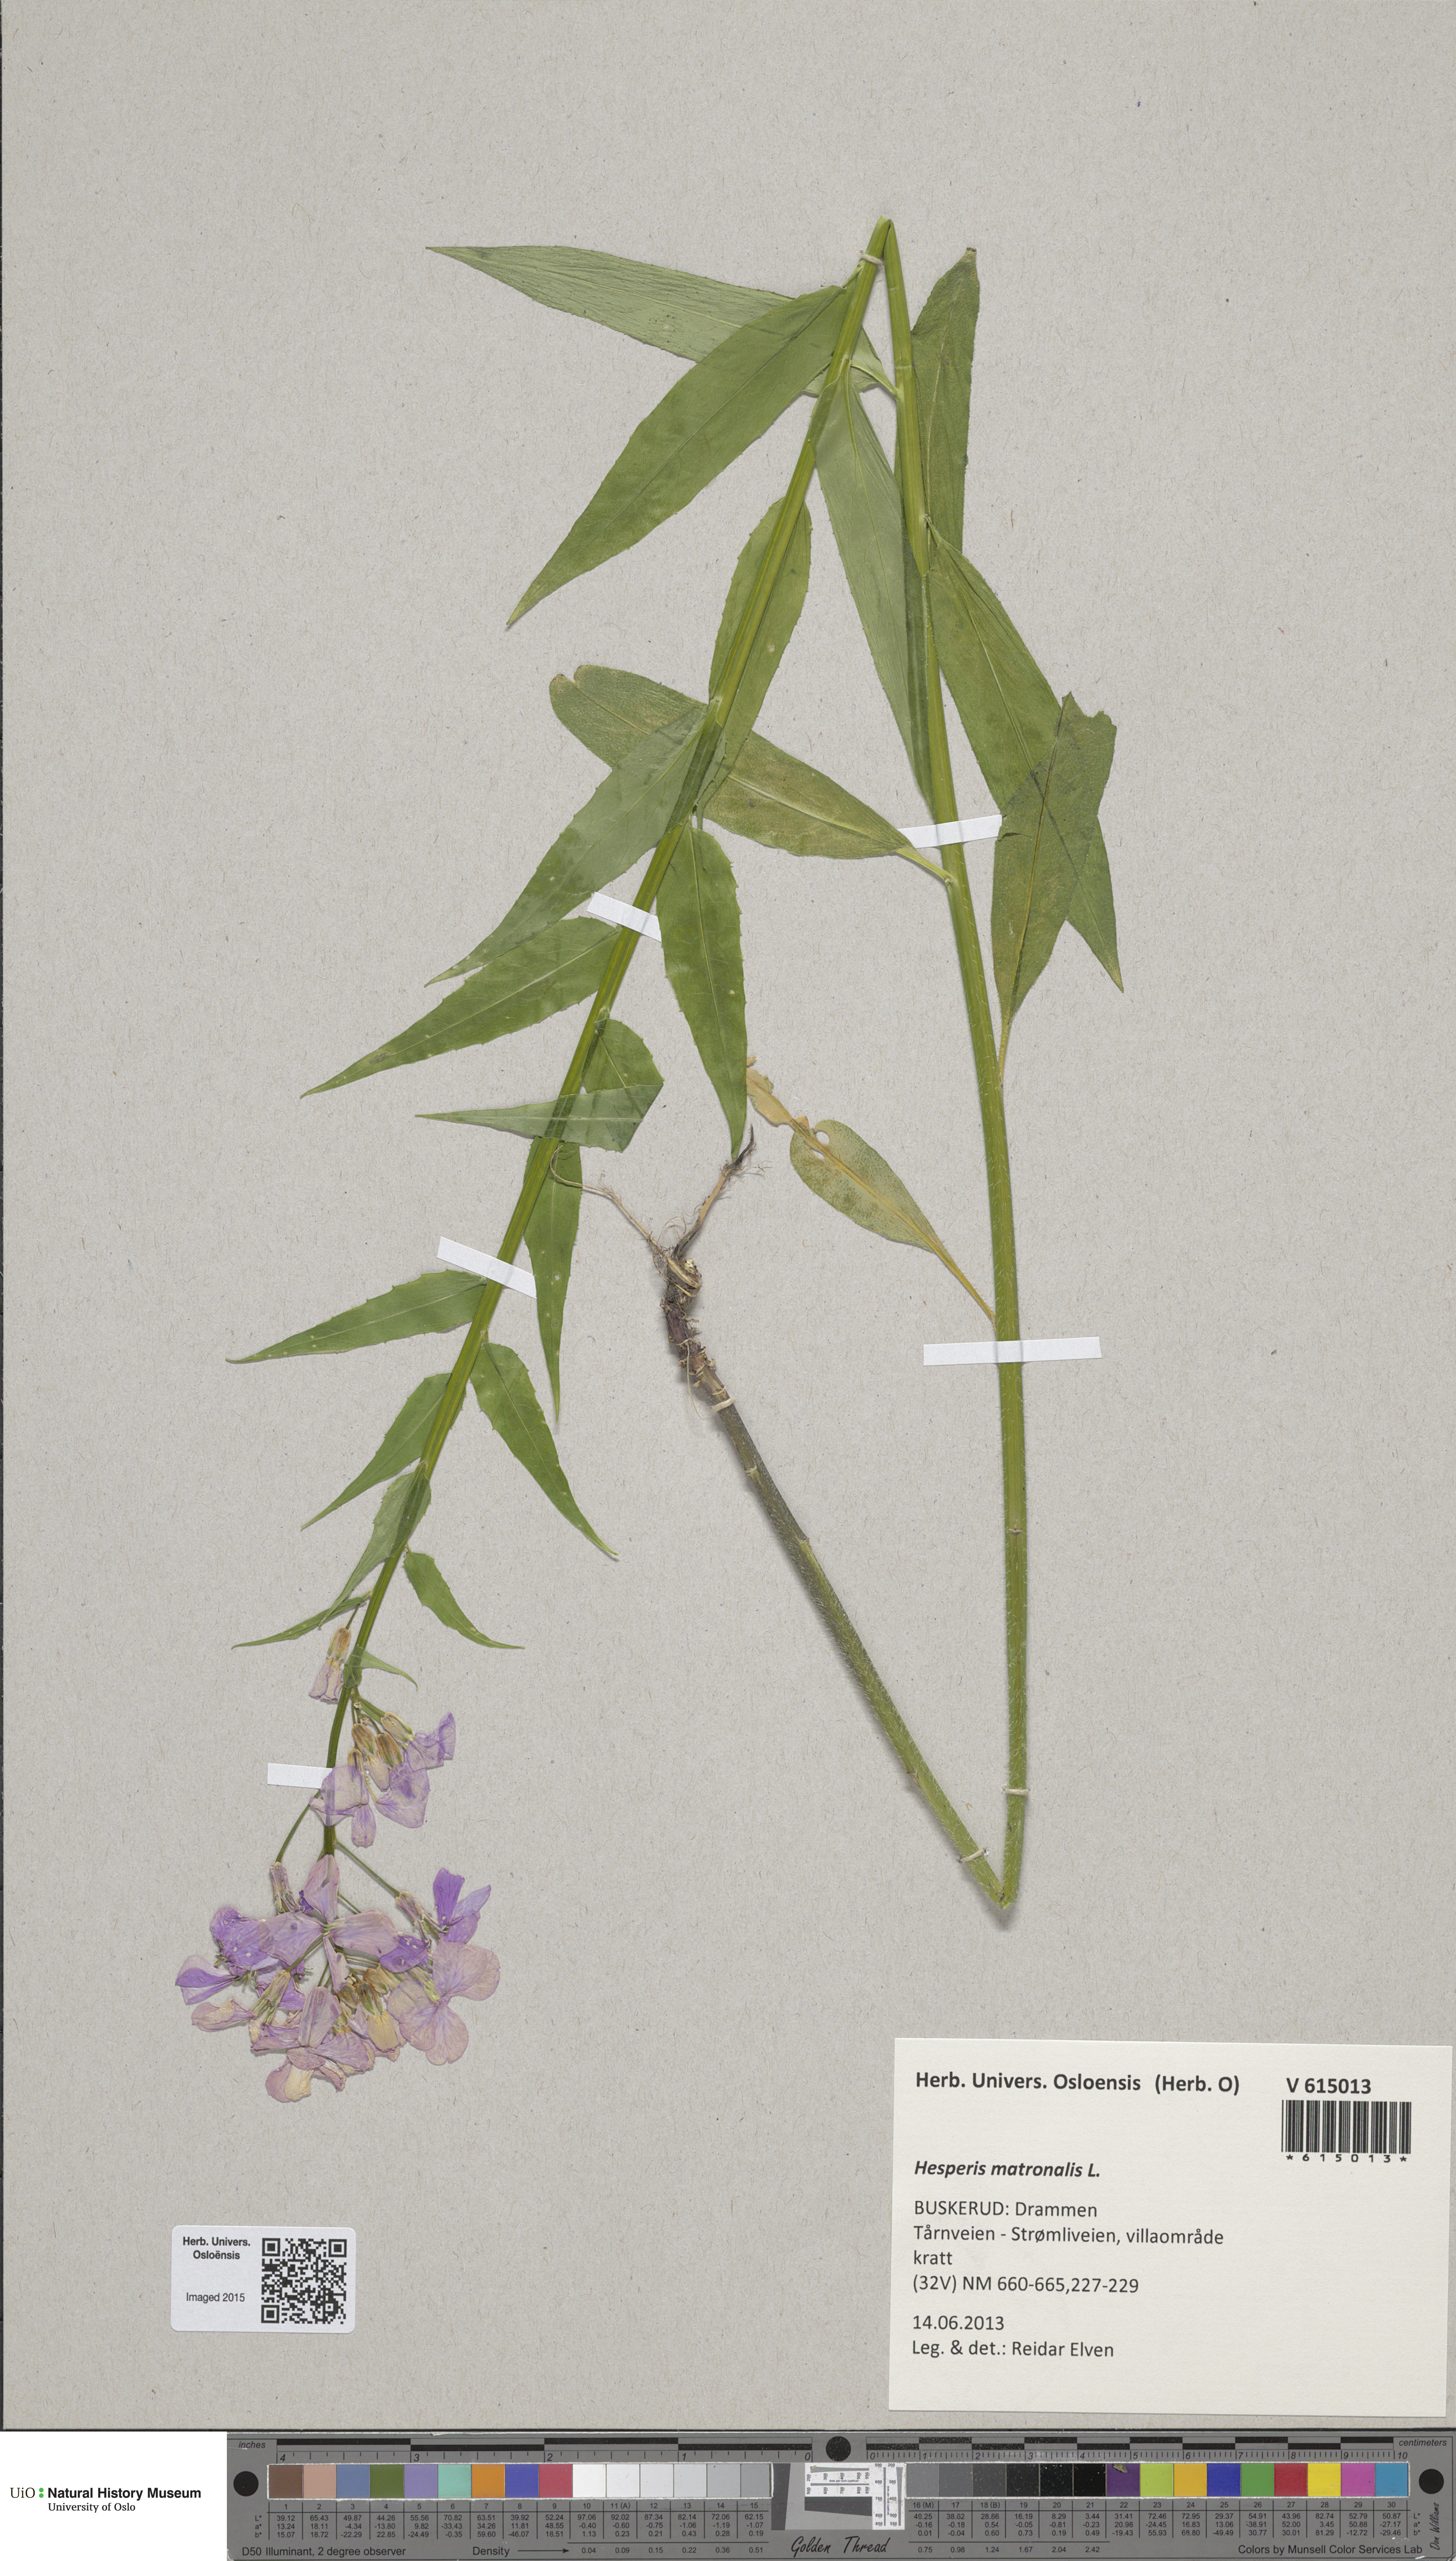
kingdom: Plantae
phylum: Tracheophyta
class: Magnoliopsida
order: Brassicales
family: Brassicaceae
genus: Hesperis
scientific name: Hesperis matronalis
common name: Dame's-violet
